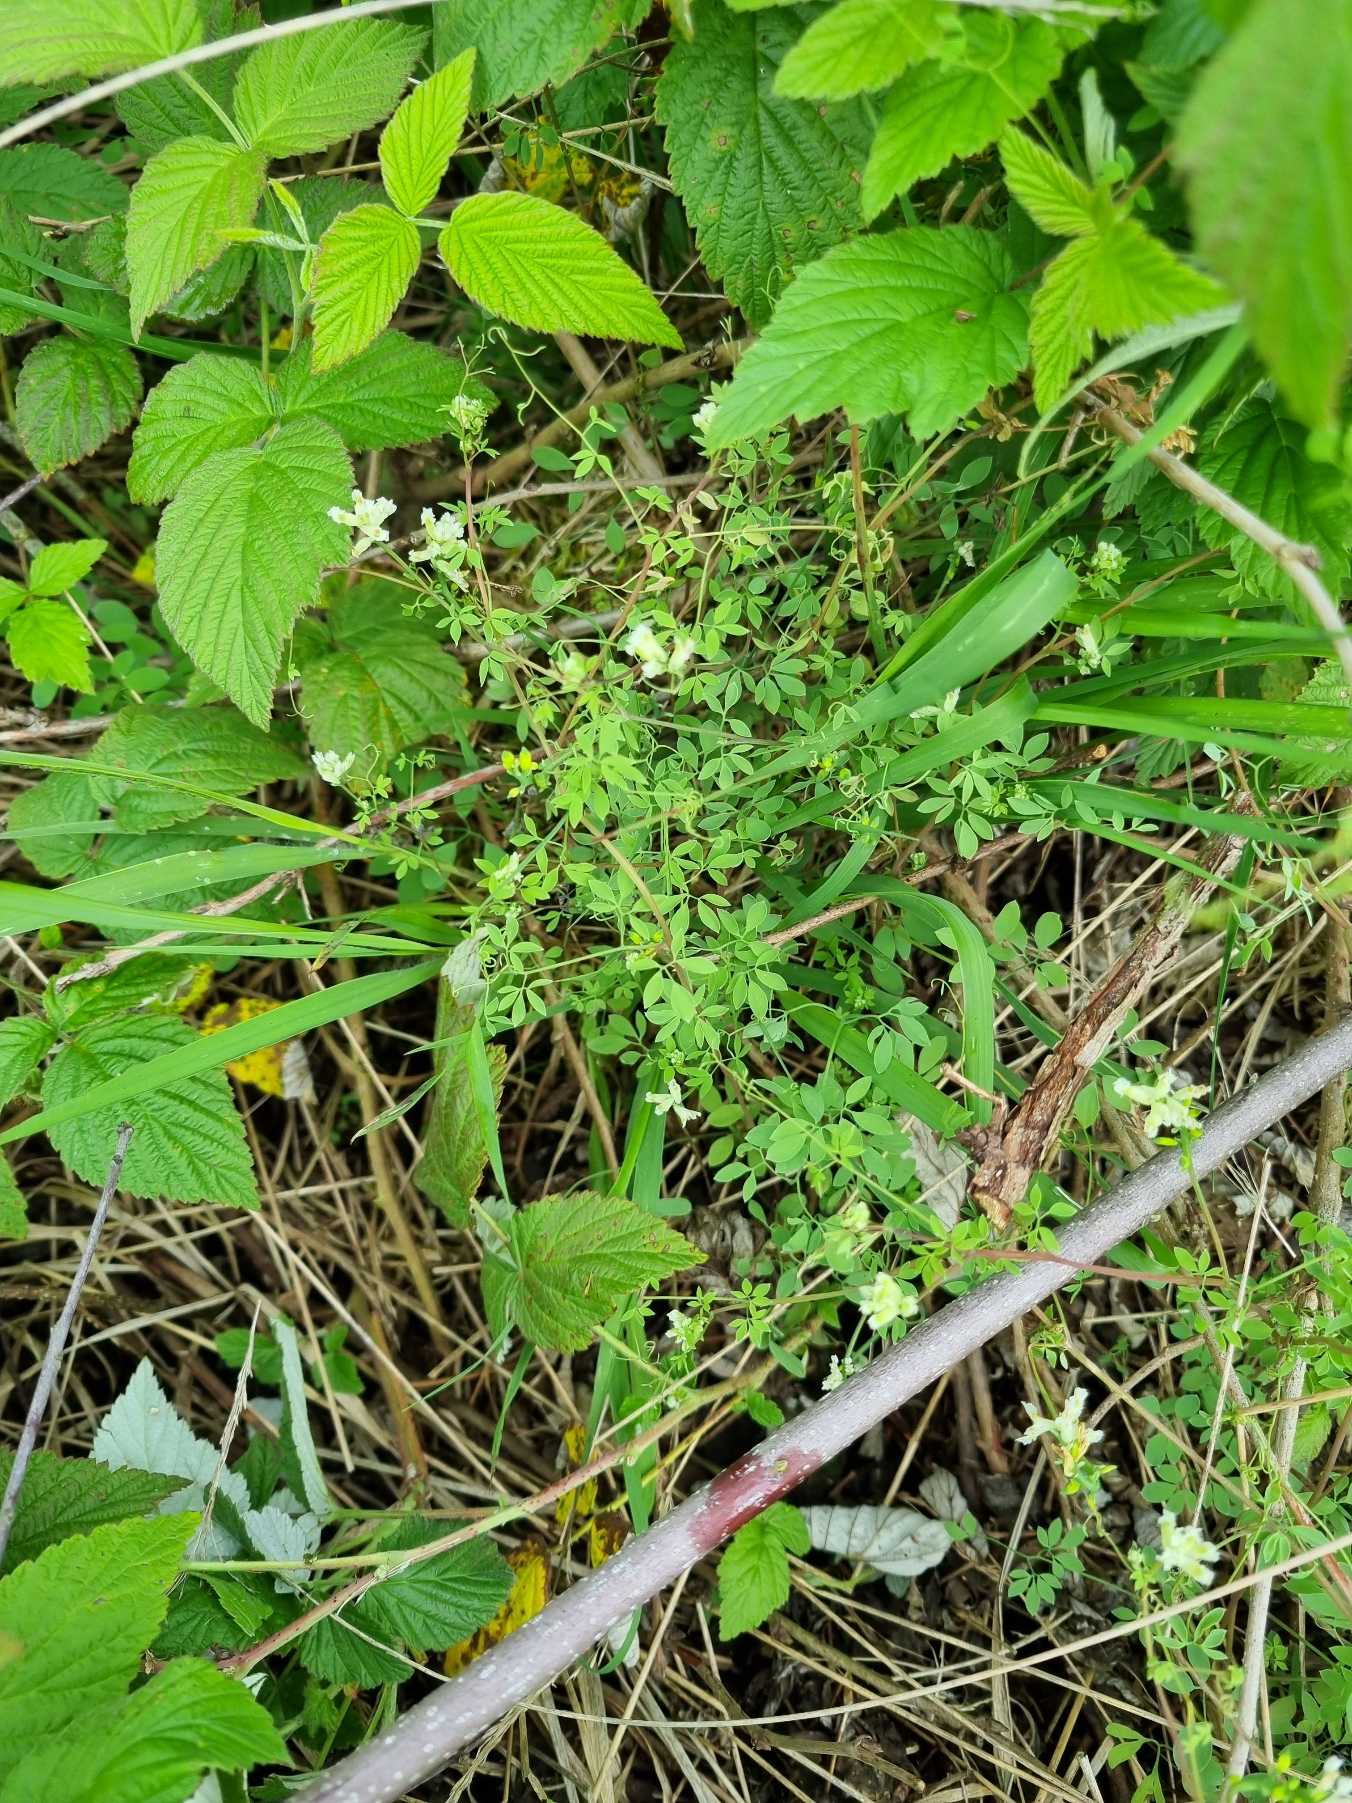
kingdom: Plantae
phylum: Tracheophyta
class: Magnoliopsida
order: Ranunculales
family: Papaveraceae
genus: Ceratocapnos
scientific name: Ceratocapnos claviculata
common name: Klatrende lærkespore
